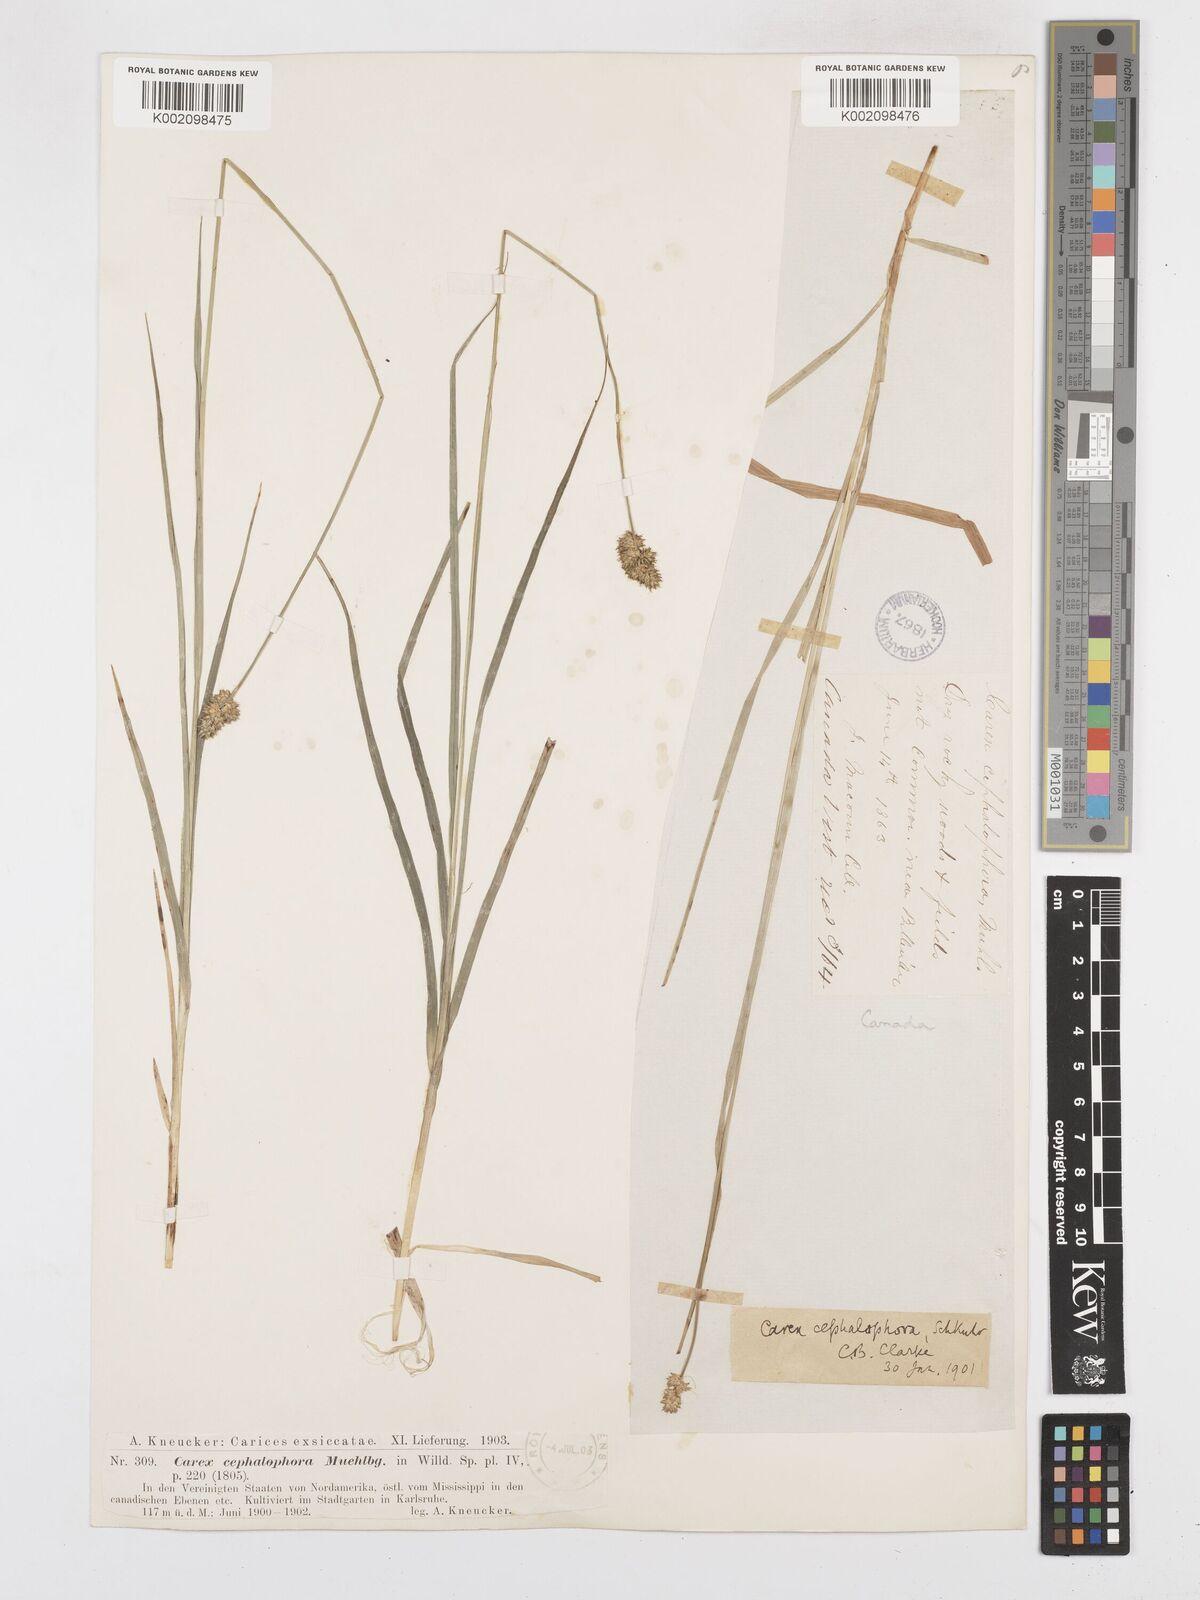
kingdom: Plantae
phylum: Tracheophyta
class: Liliopsida
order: Poales
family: Cyperaceae
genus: Carex
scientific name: Carex cephalophora
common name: Oval-headed sedge
